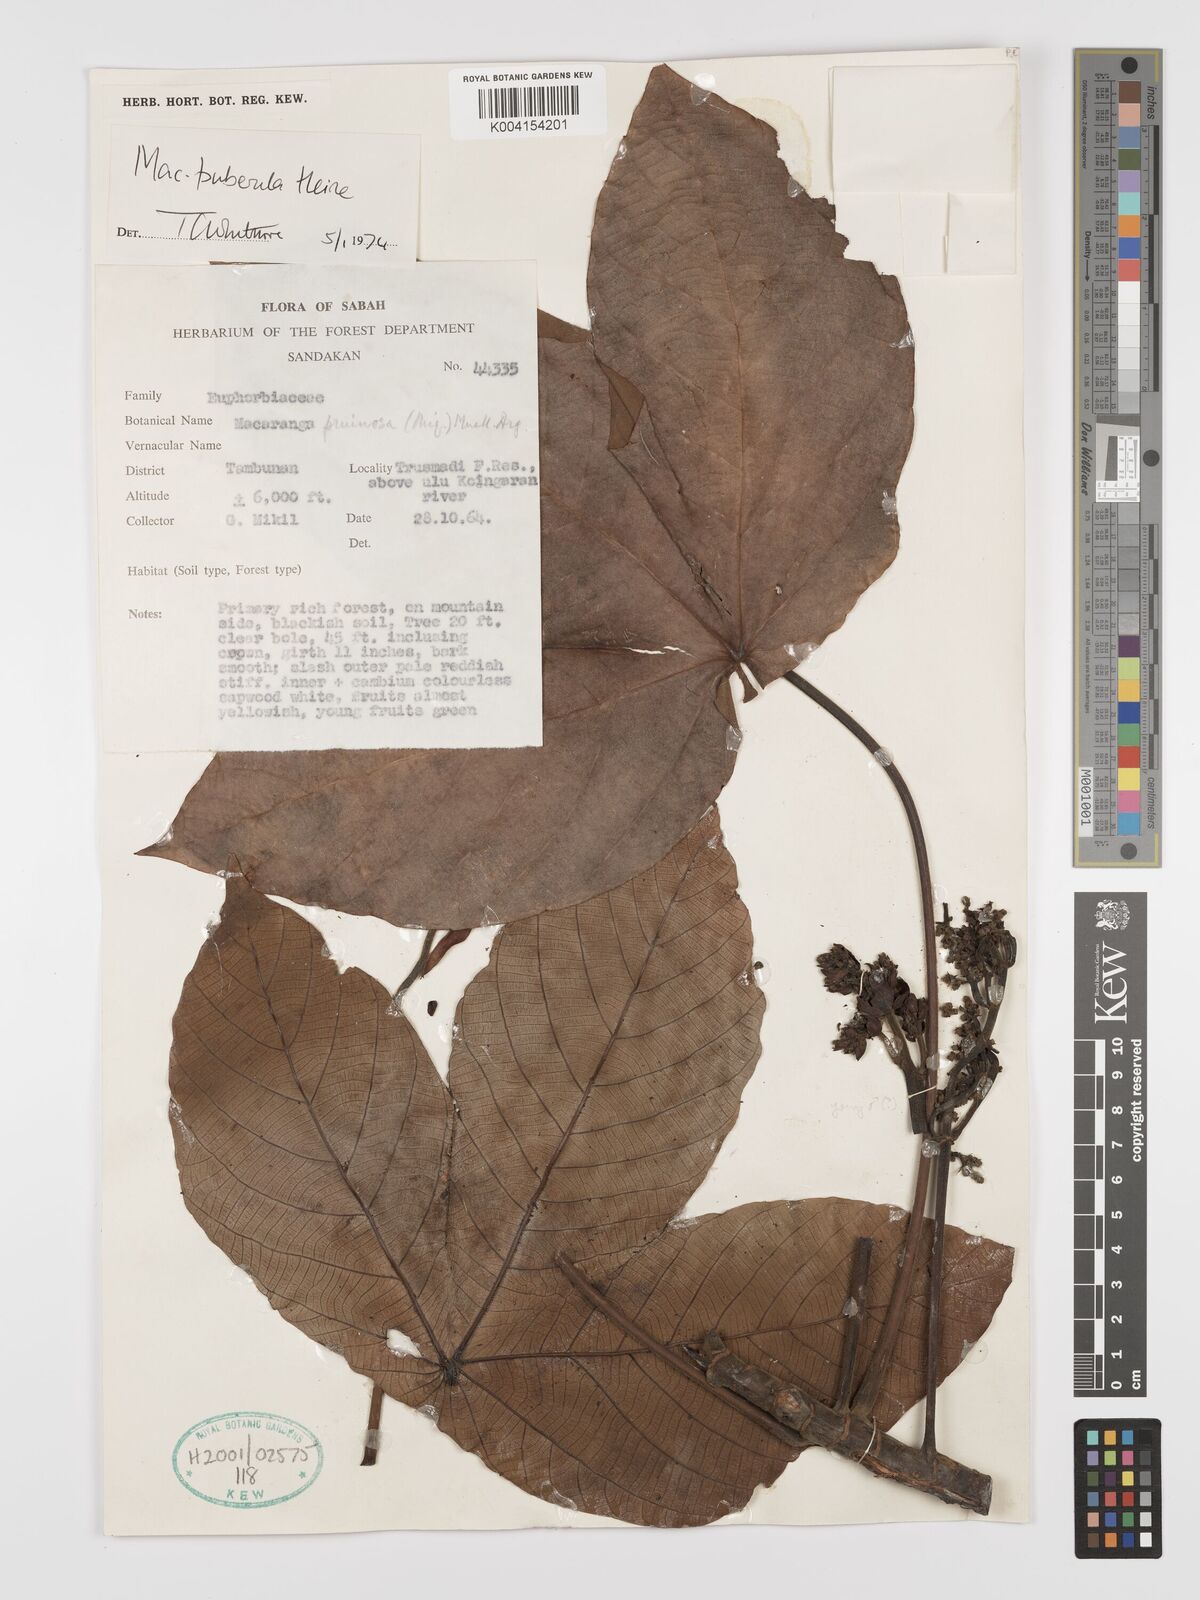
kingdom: Plantae
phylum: Tracheophyta
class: Magnoliopsida
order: Malpighiales
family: Euphorbiaceae
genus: Macaranga
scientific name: Macaranga puberula
